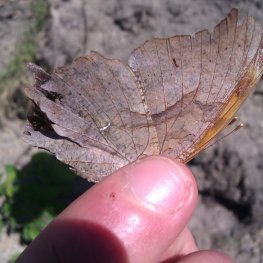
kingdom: Animalia
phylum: Arthropoda
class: Insecta
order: Lepidoptera
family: Nymphalidae
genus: Polygonia
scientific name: Polygonia interrogationis
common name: Question Mark
